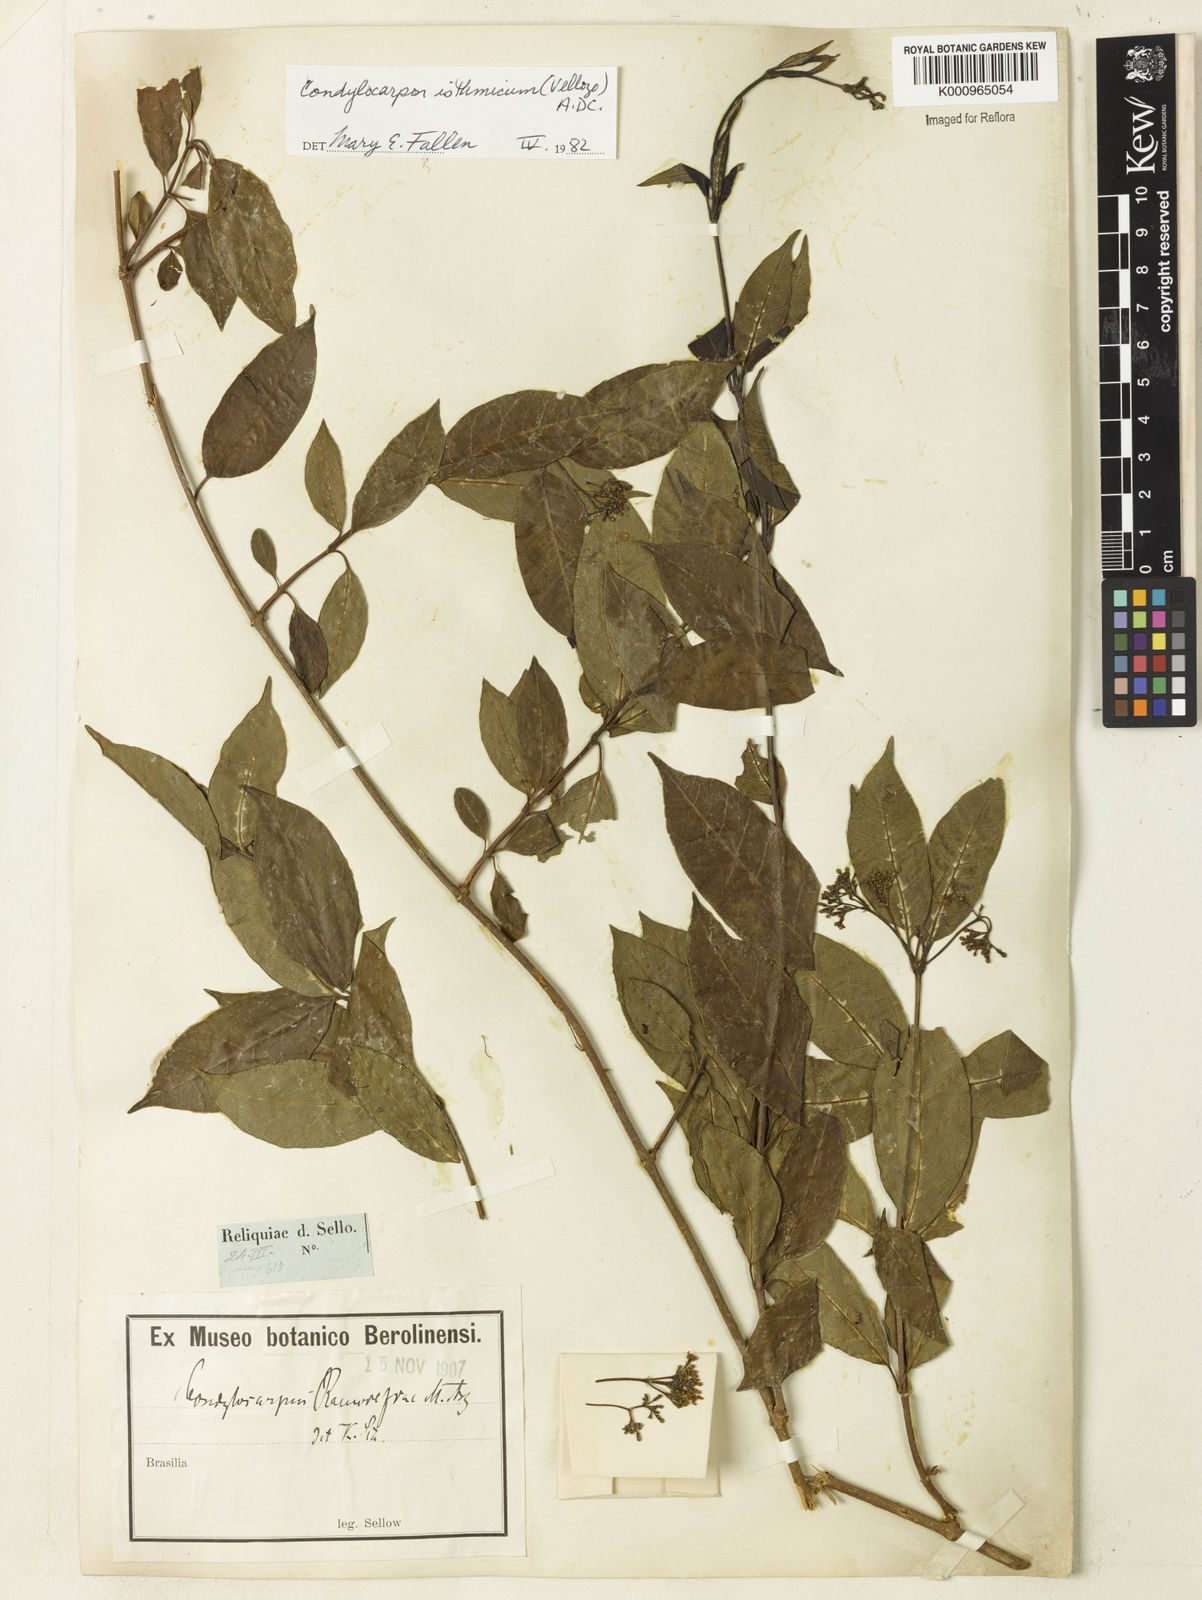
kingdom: Plantae
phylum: Tracheophyta
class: Magnoliopsida
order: Gentianales
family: Apocynaceae
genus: Condylocarpon
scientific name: Condylocarpon isthmicum
